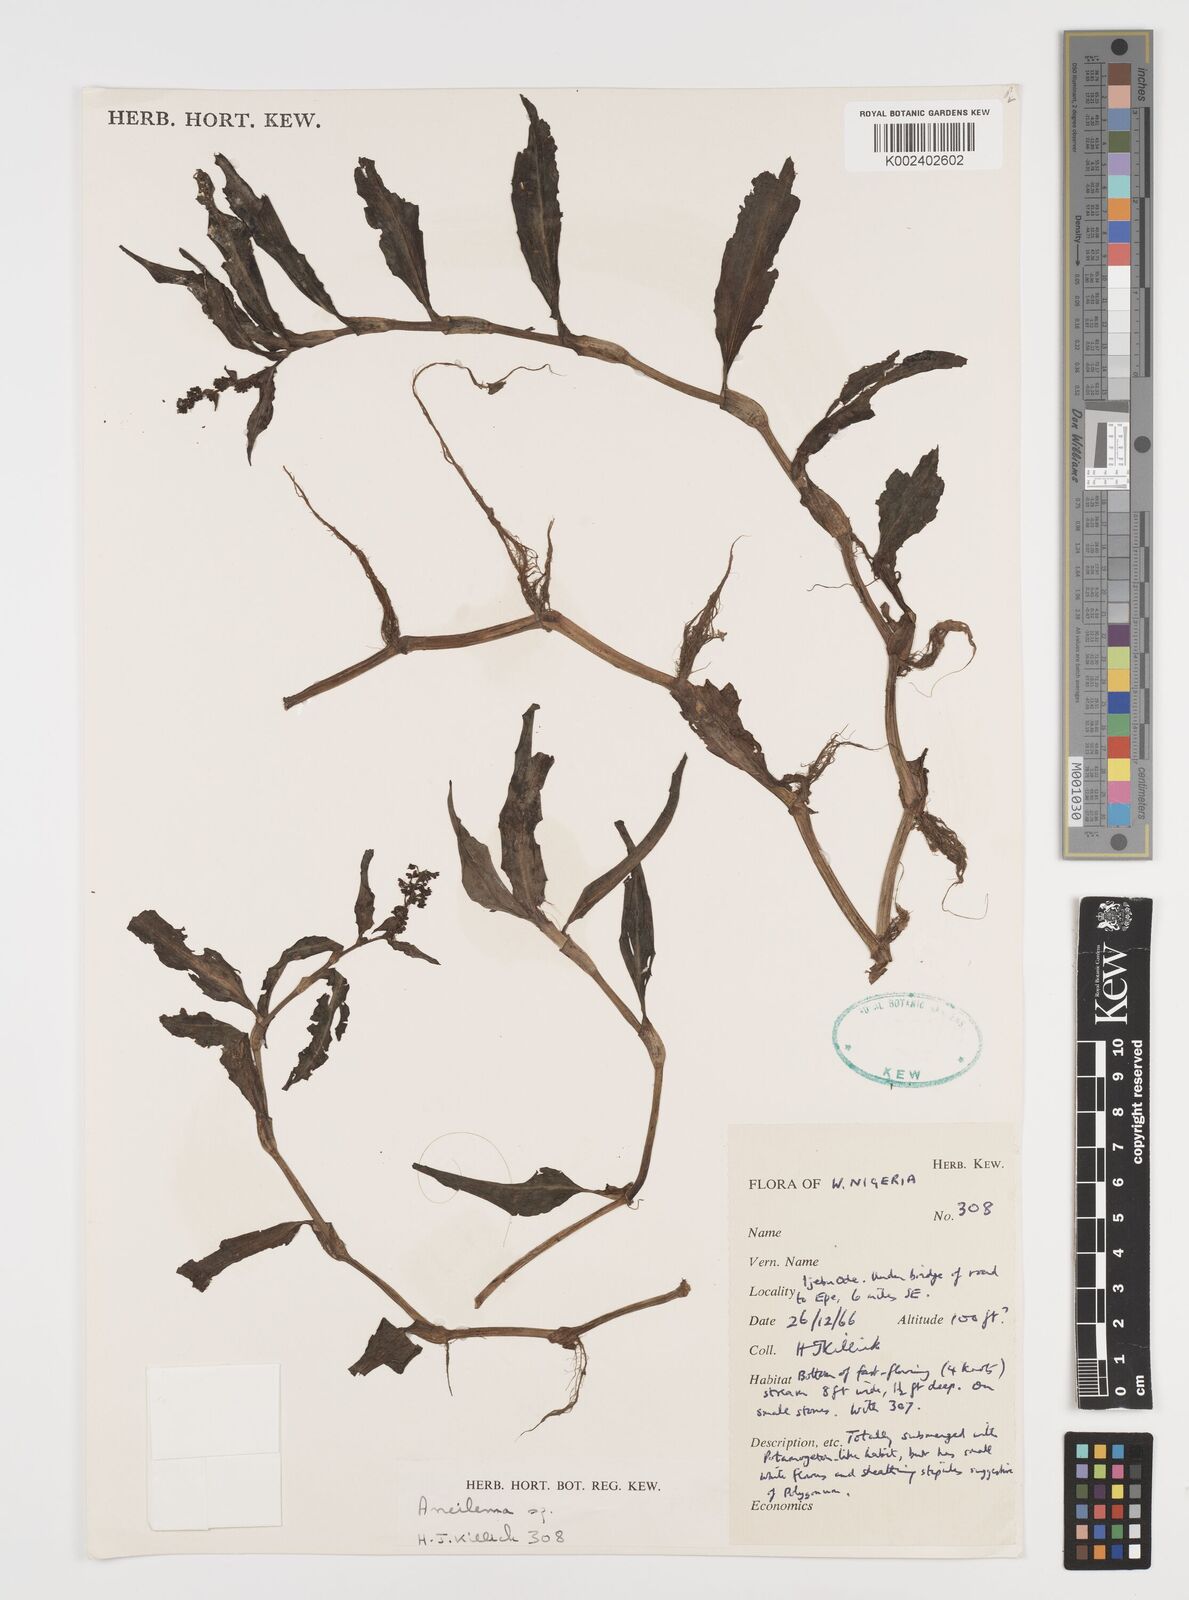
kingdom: Plantae
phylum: Tracheophyta
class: Liliopsida
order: Commelinales
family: Commelinaceae
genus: Aneilema
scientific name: Aneilema
